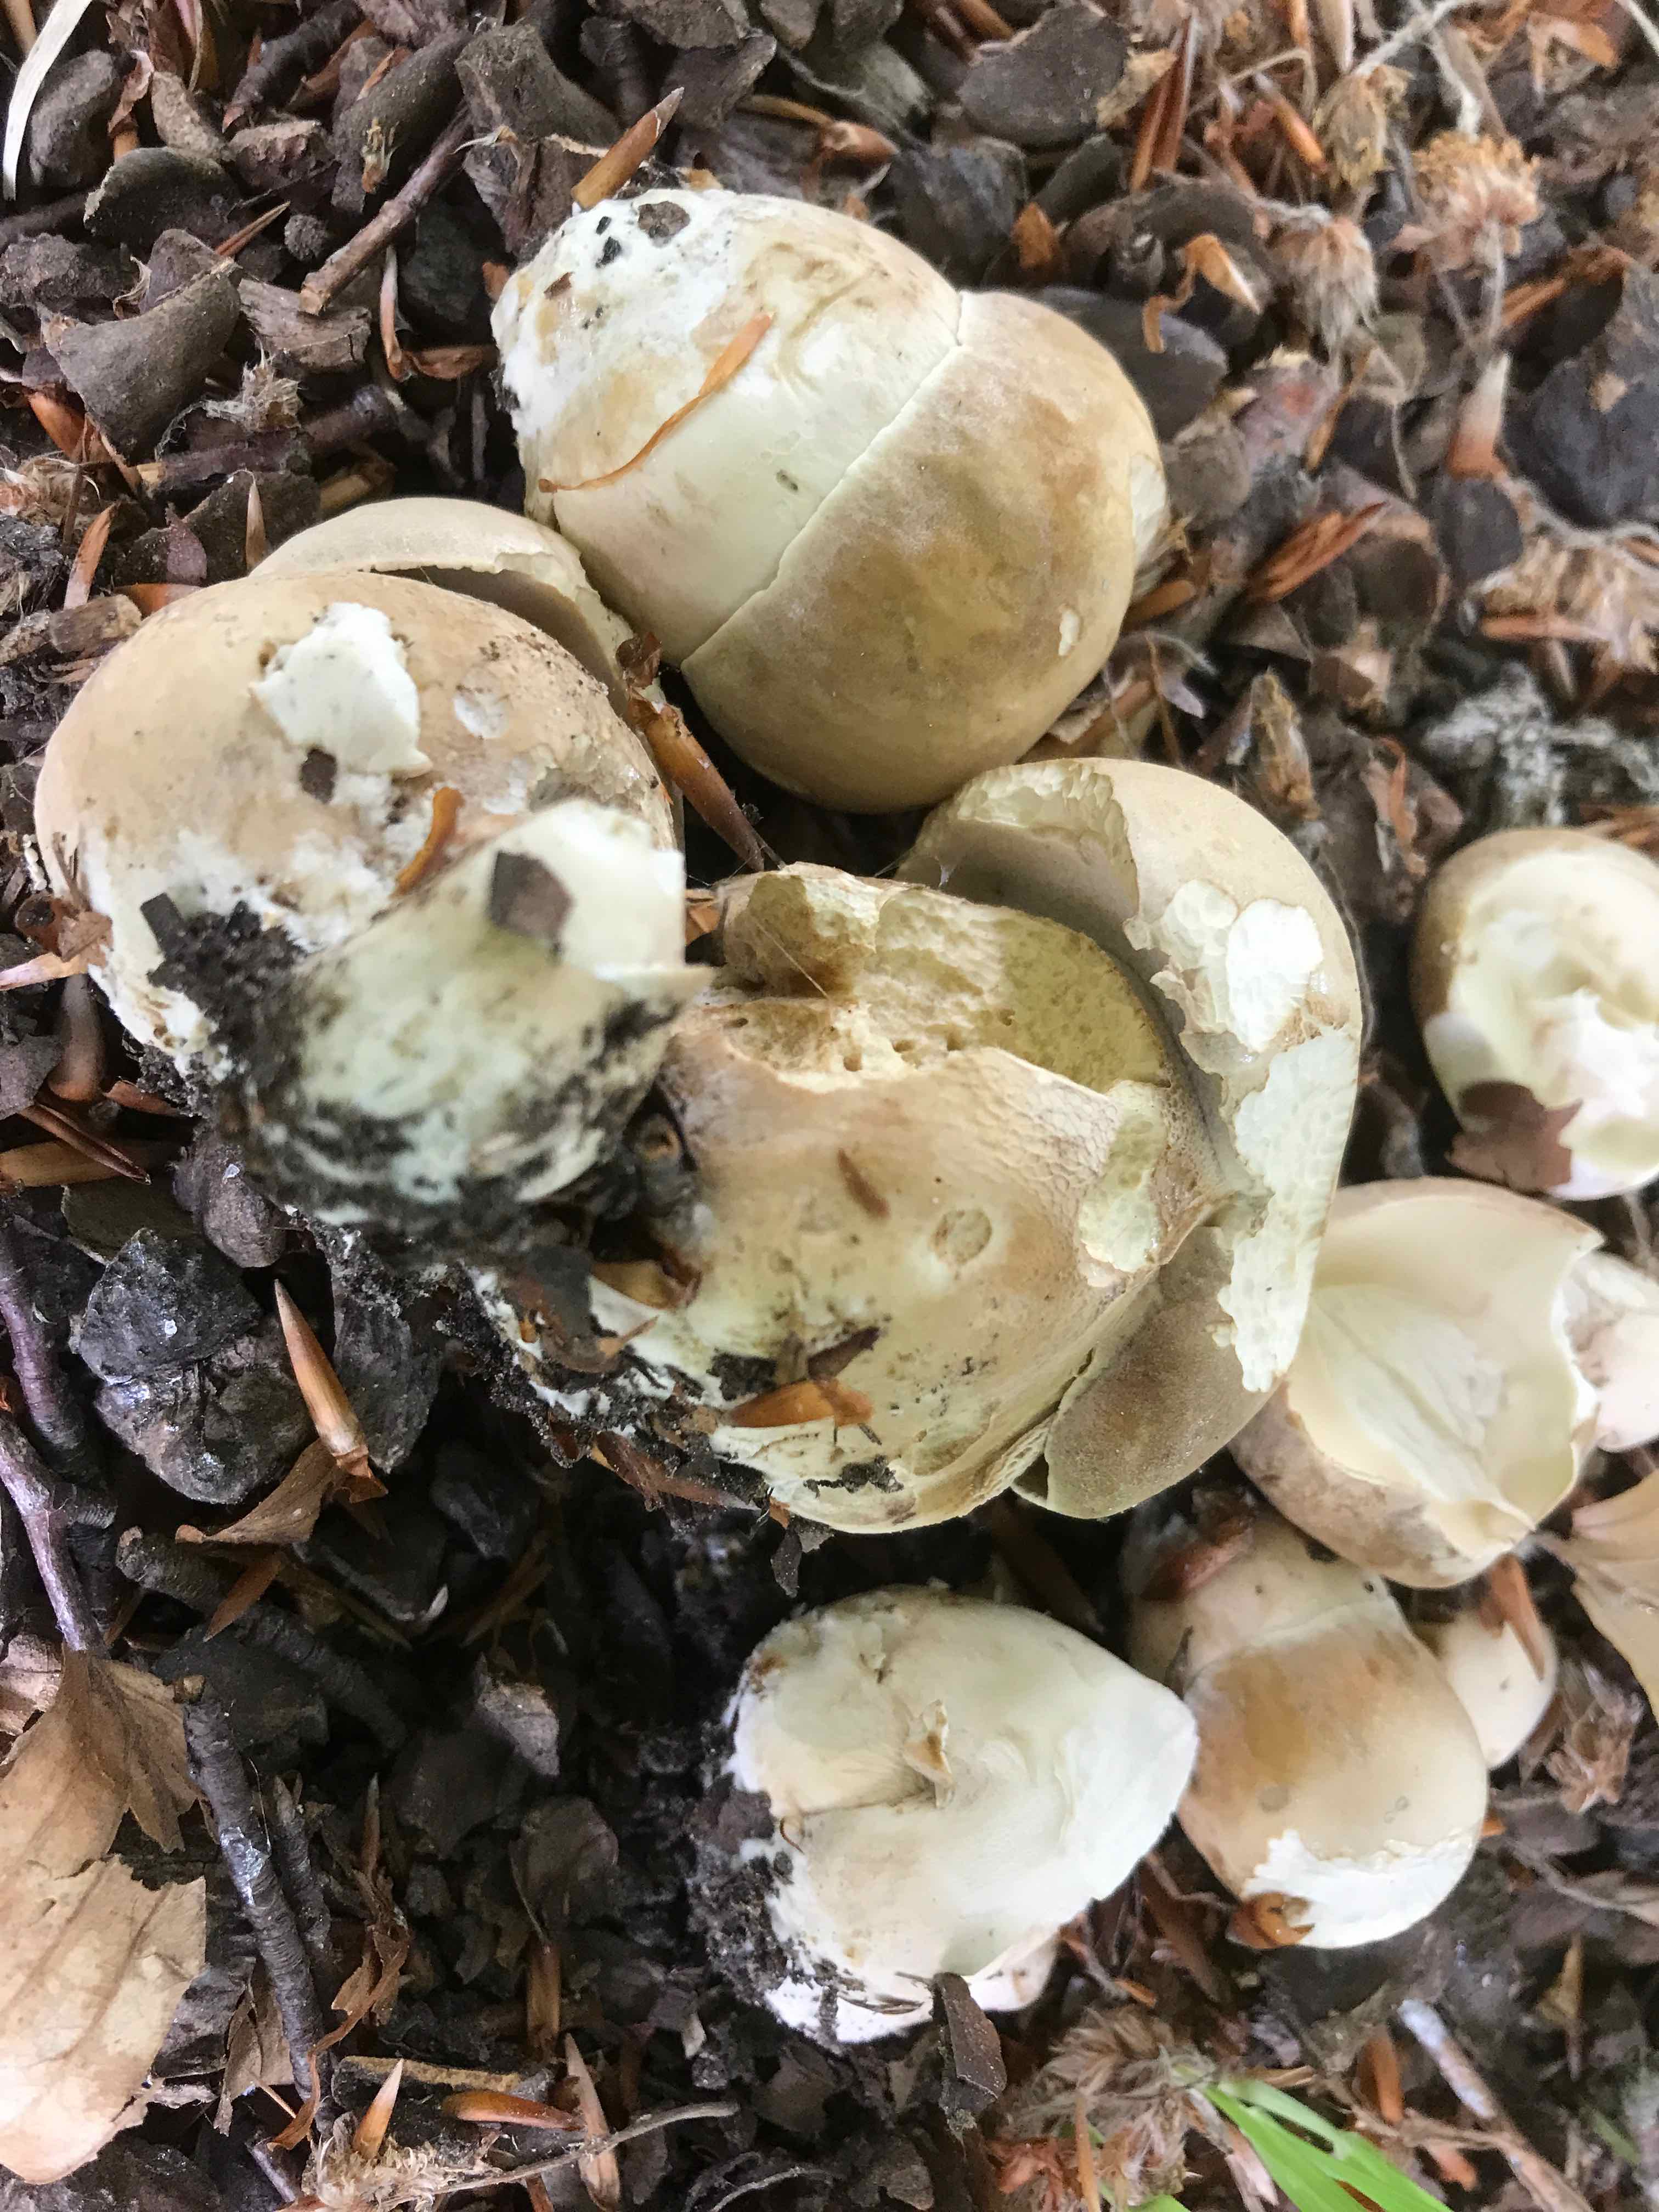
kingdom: Fungi
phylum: Basidiomycota
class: Agaricomycetes
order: Boletales
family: Boletaceae
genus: Boletus
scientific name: Boletus reticulatus
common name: sommer-rørhat
